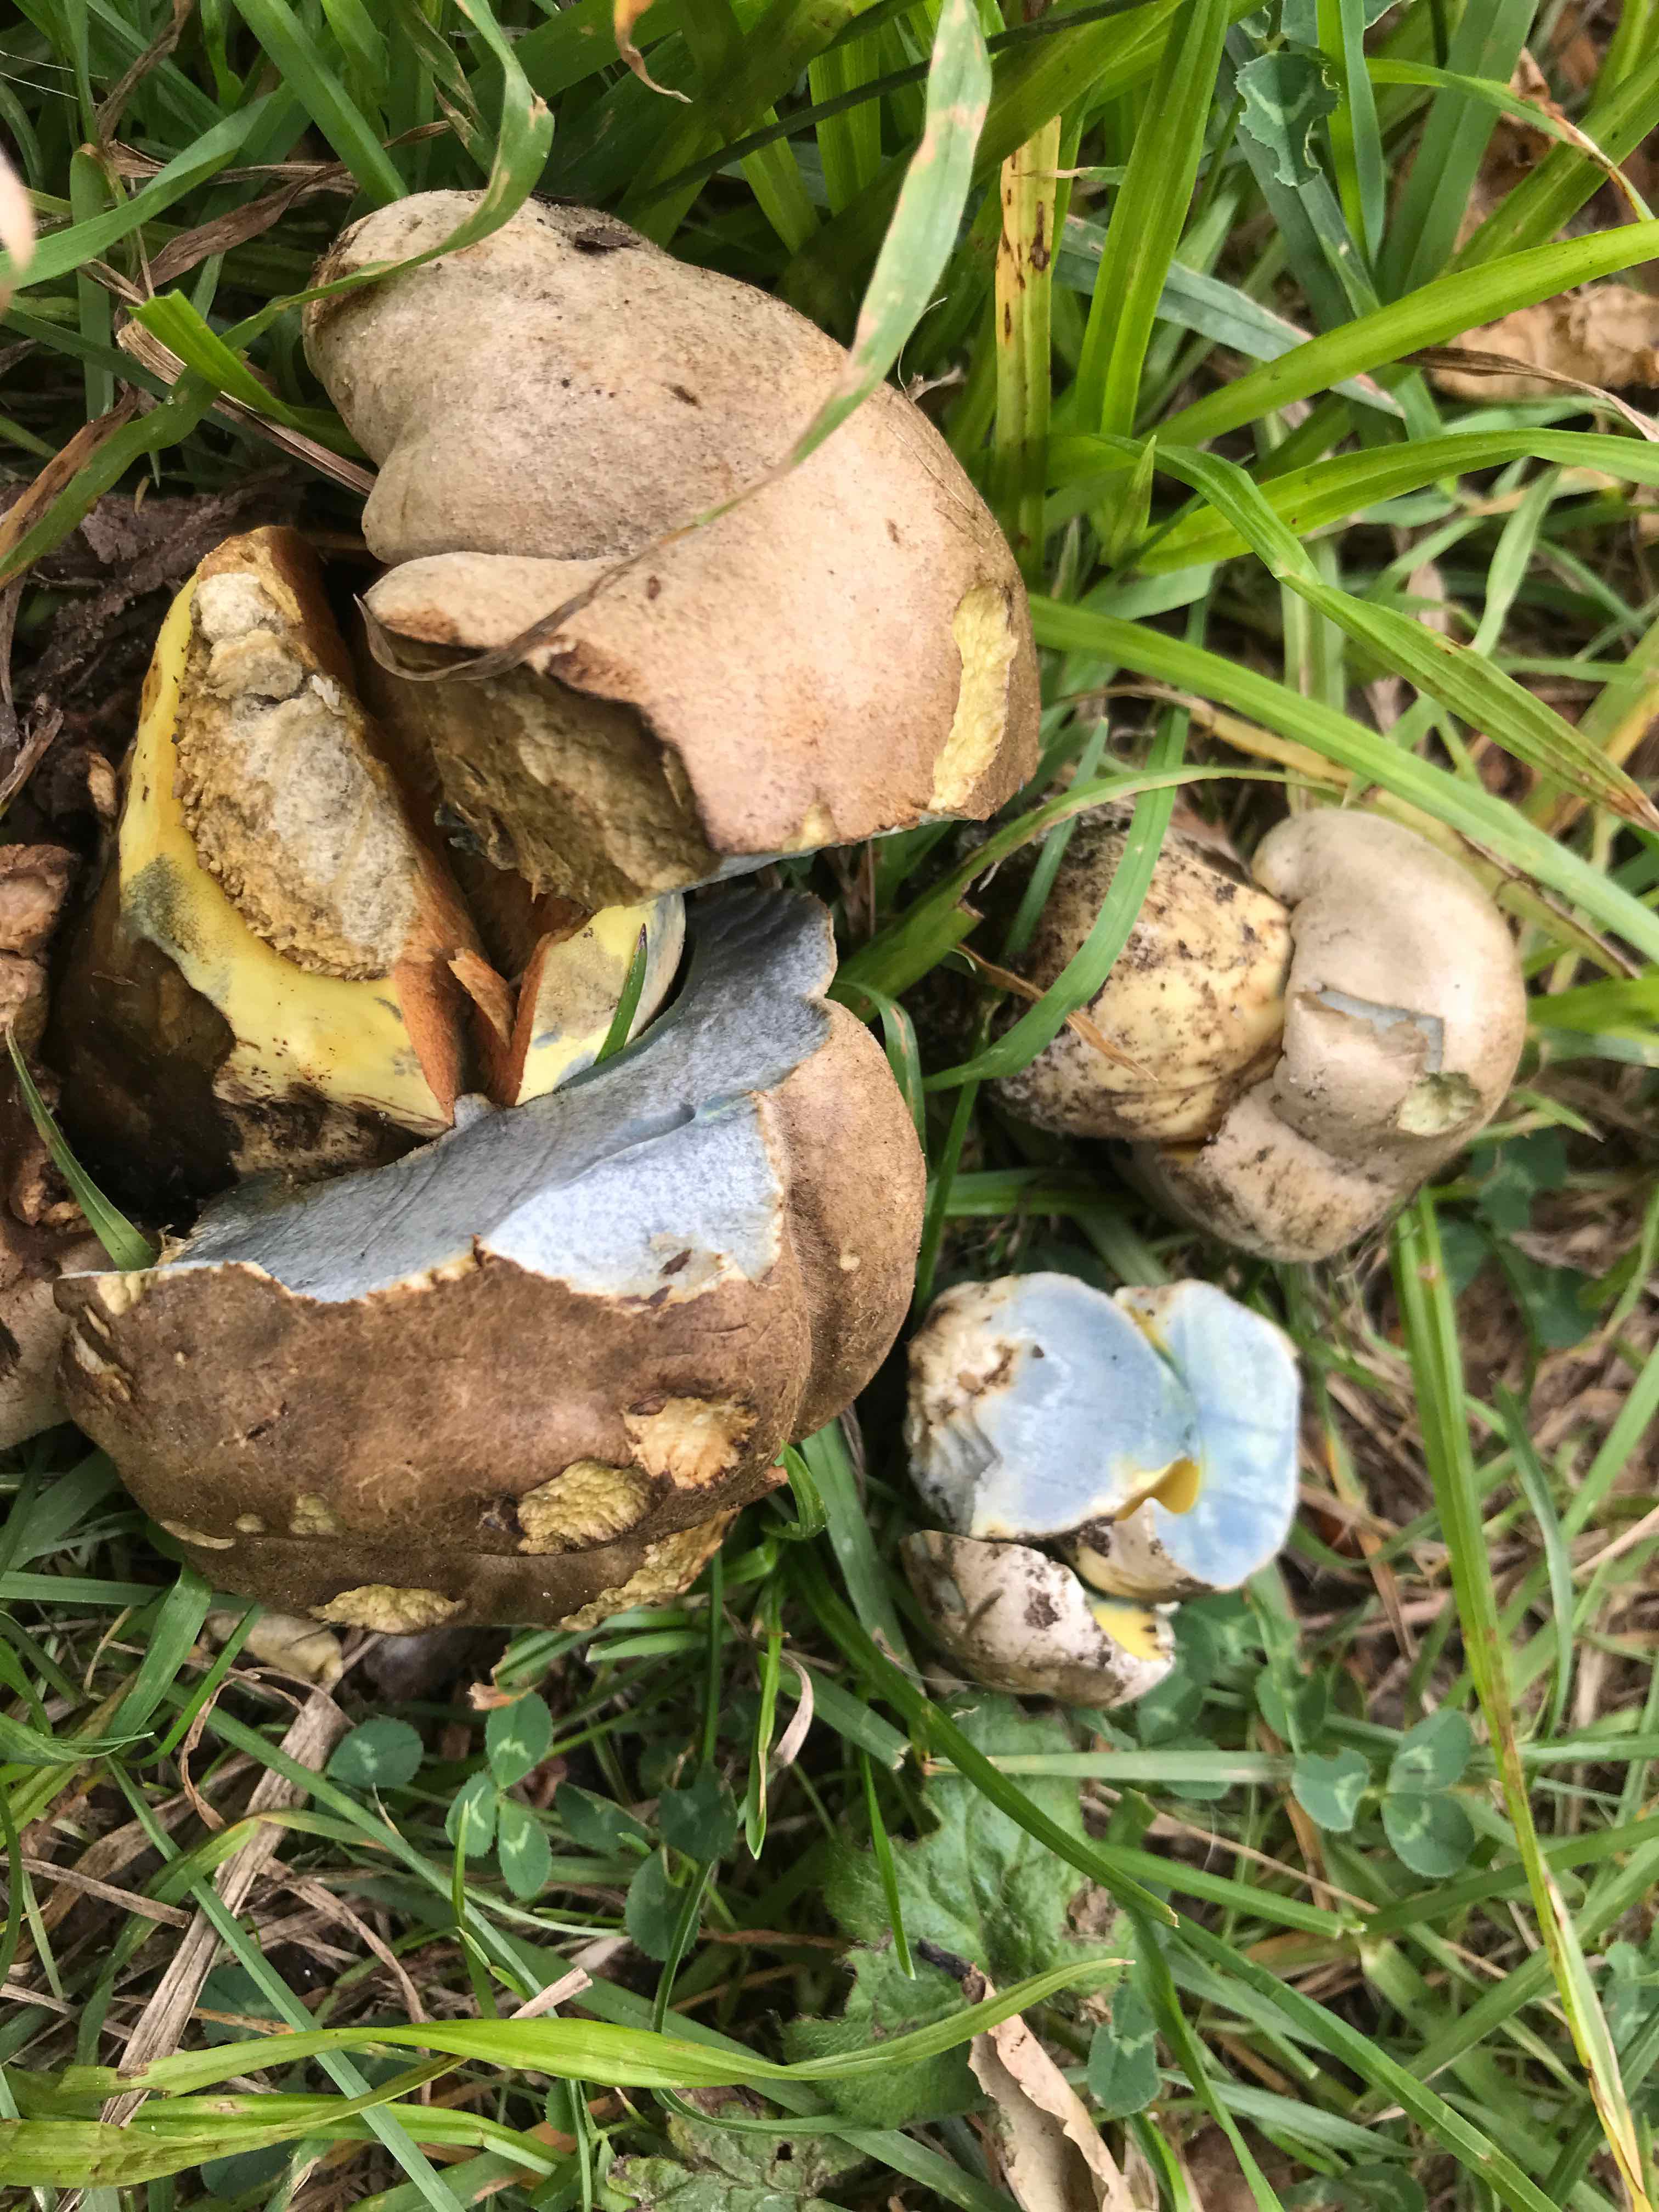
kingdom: Fungi
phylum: Basidiomycota
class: Agaricomycetes
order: Boletales
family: Boletaceae
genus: Caloboletus
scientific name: Caloboletus radicans
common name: rod-rørhat
